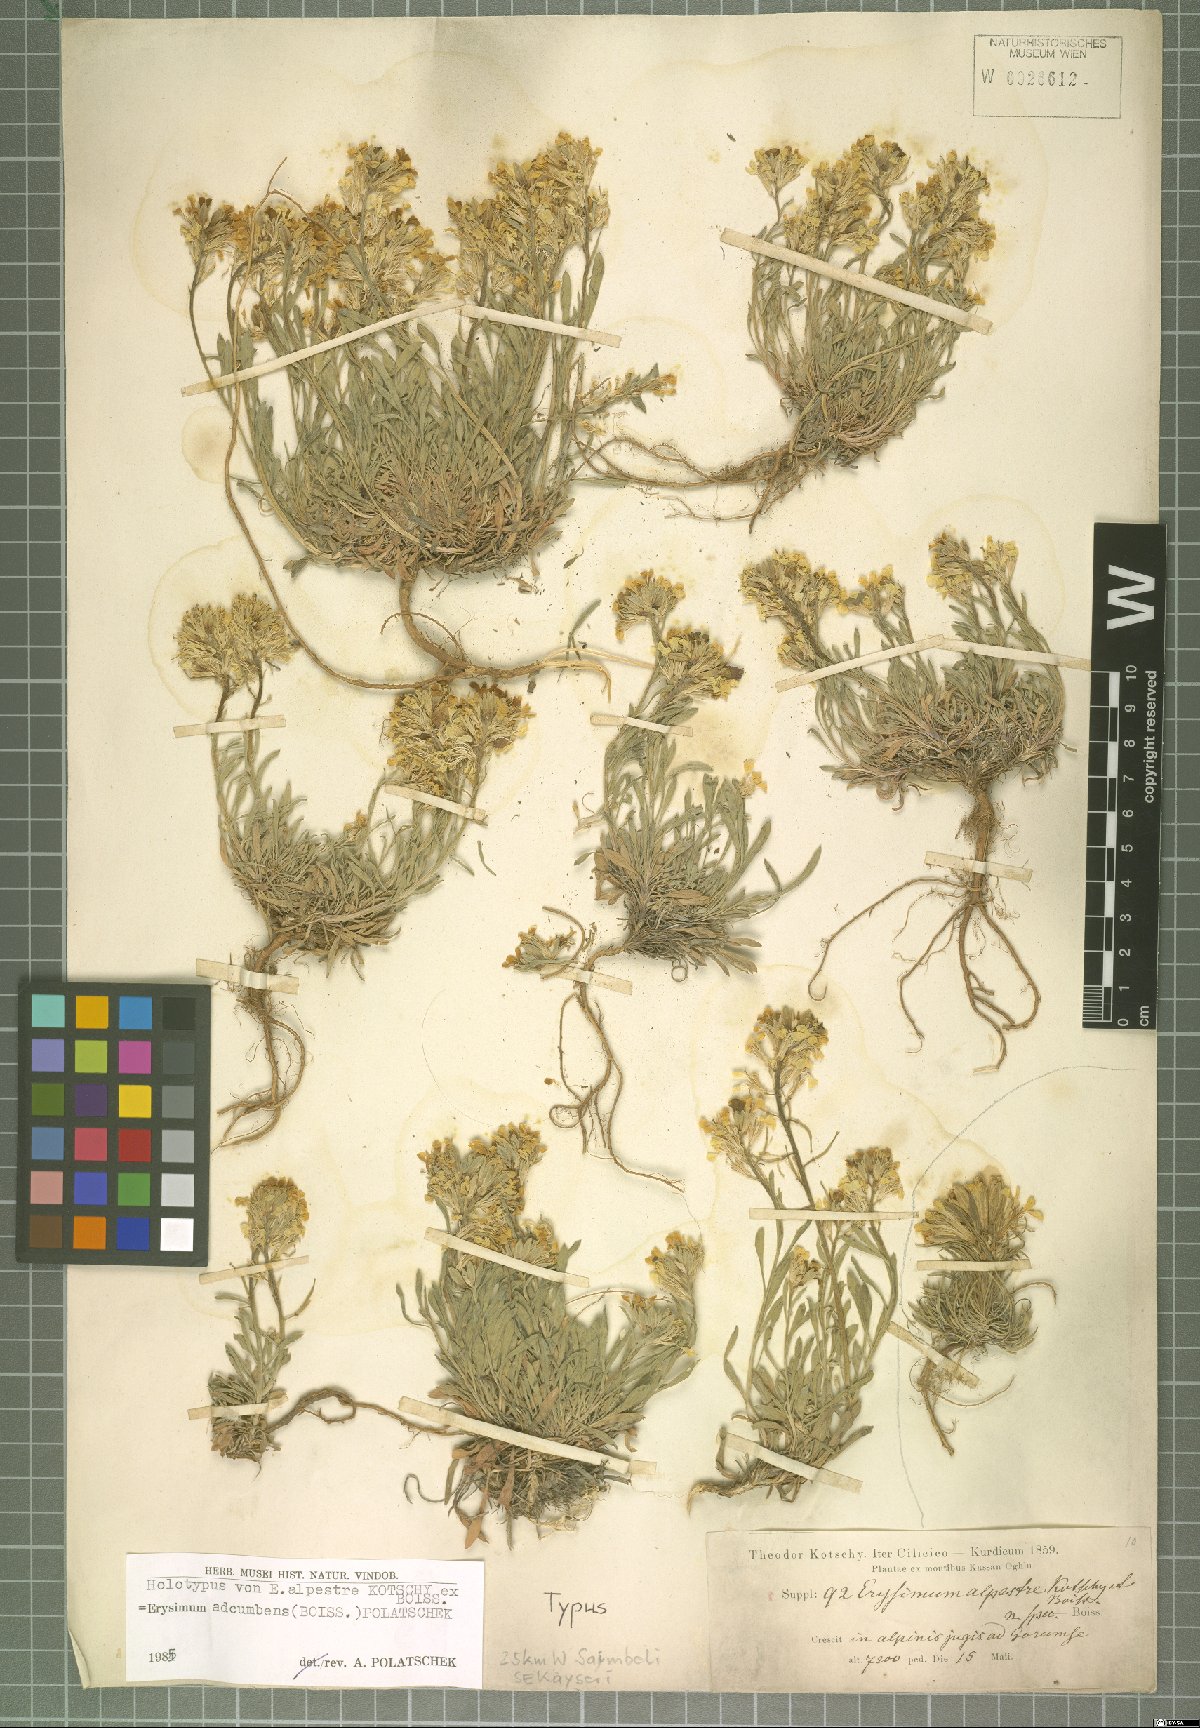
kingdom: Plantae
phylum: Tracheophyta
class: Magnoliopsida
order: Brassicales
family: Brassicaceae
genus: Erysimum
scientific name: Erysimum adcumbens
